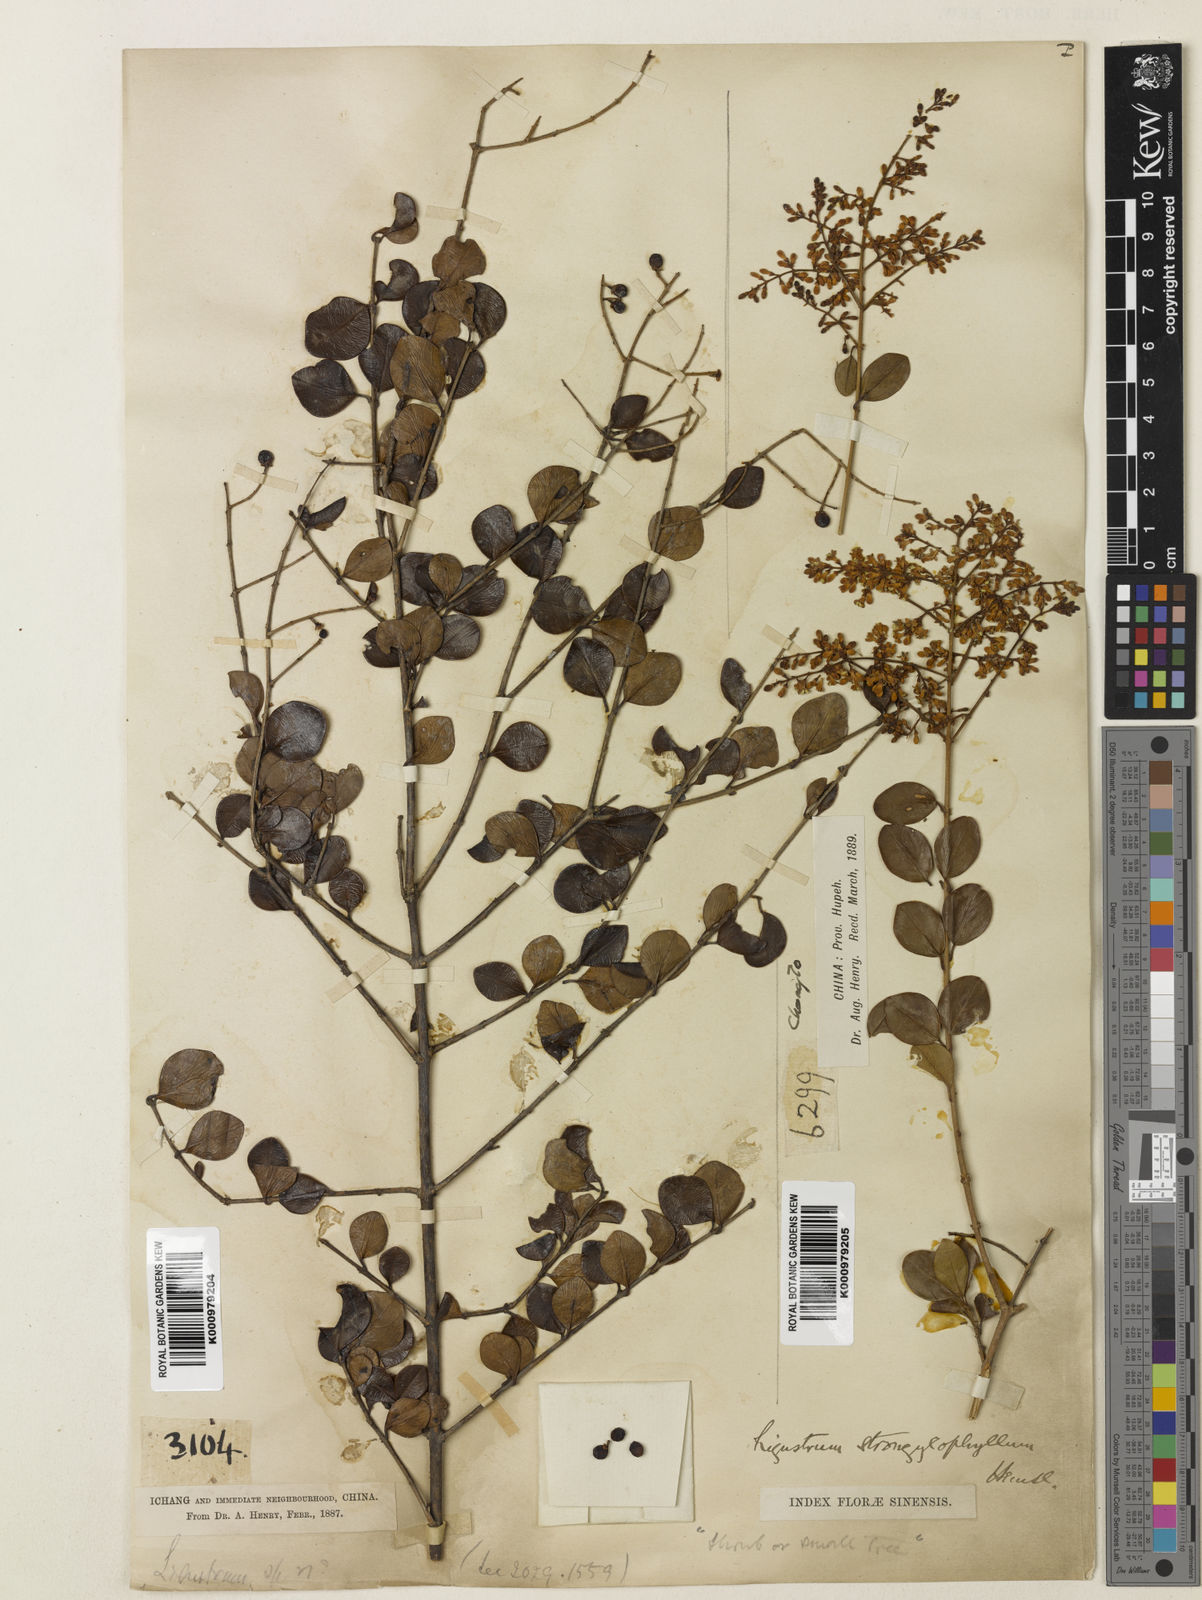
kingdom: Plantae
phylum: Tracheophyta
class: Magnoliopsida
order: Lamiales
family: Oleaceae
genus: Ligustrum
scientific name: Ligustrum strongylophyllum
